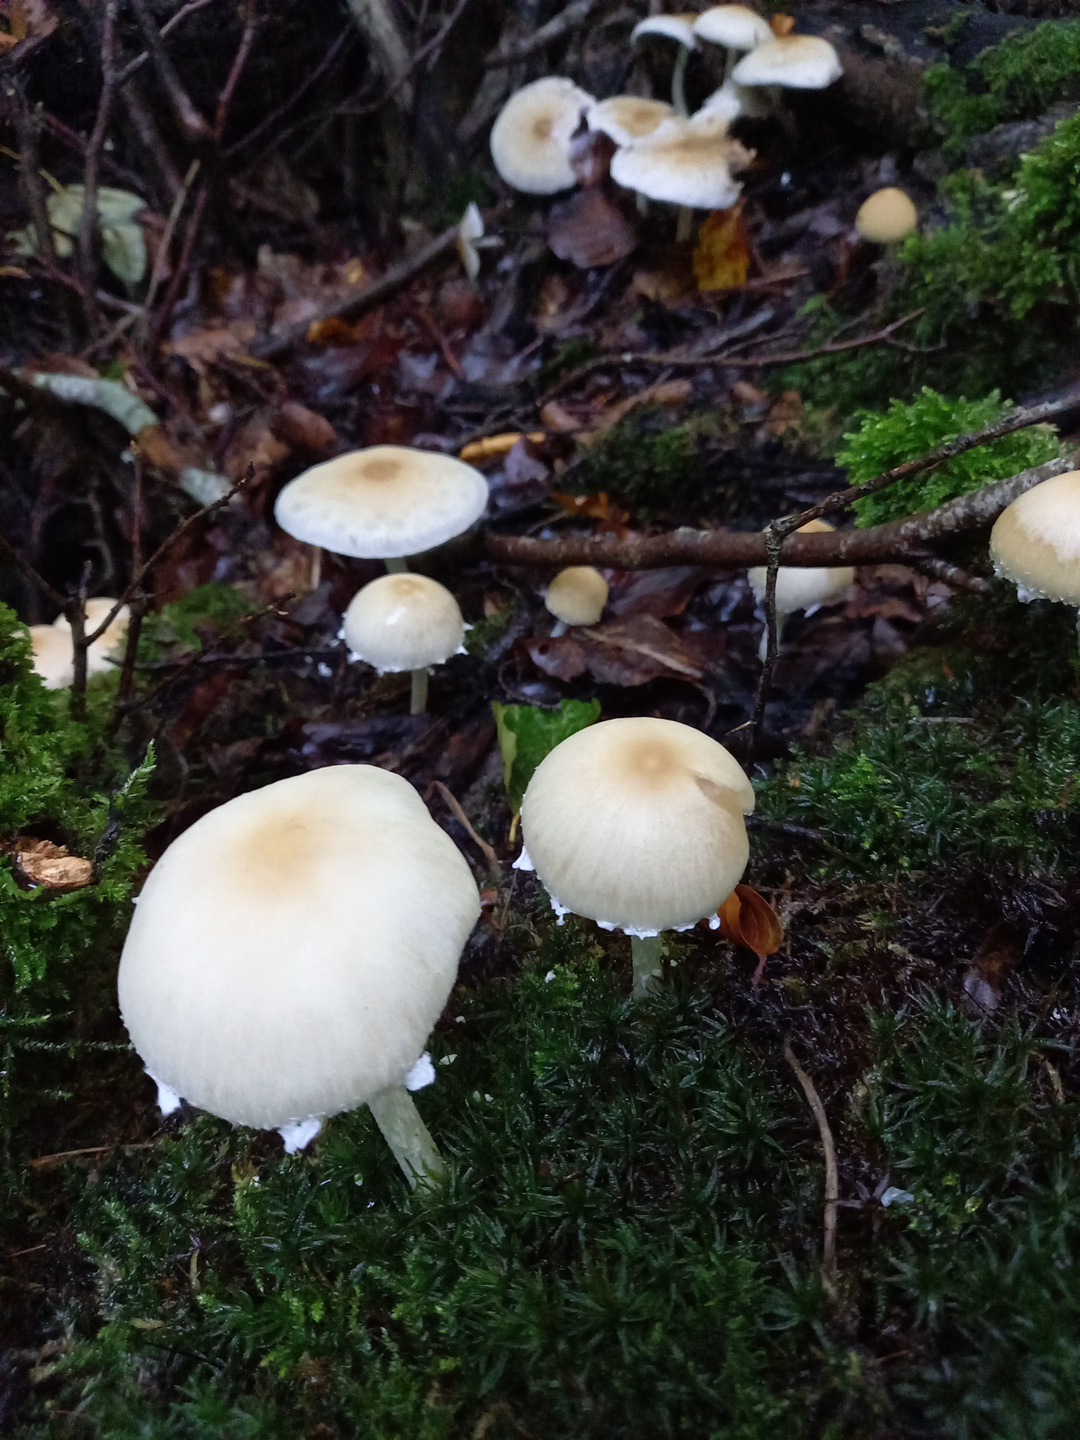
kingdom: Fungi
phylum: Basidiomycota
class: Agaricomycetes
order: Agaricales
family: Psathyrellaceae
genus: Candolleomyces
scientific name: Candolleomyces candolleanus
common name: Candolles mørkhat
